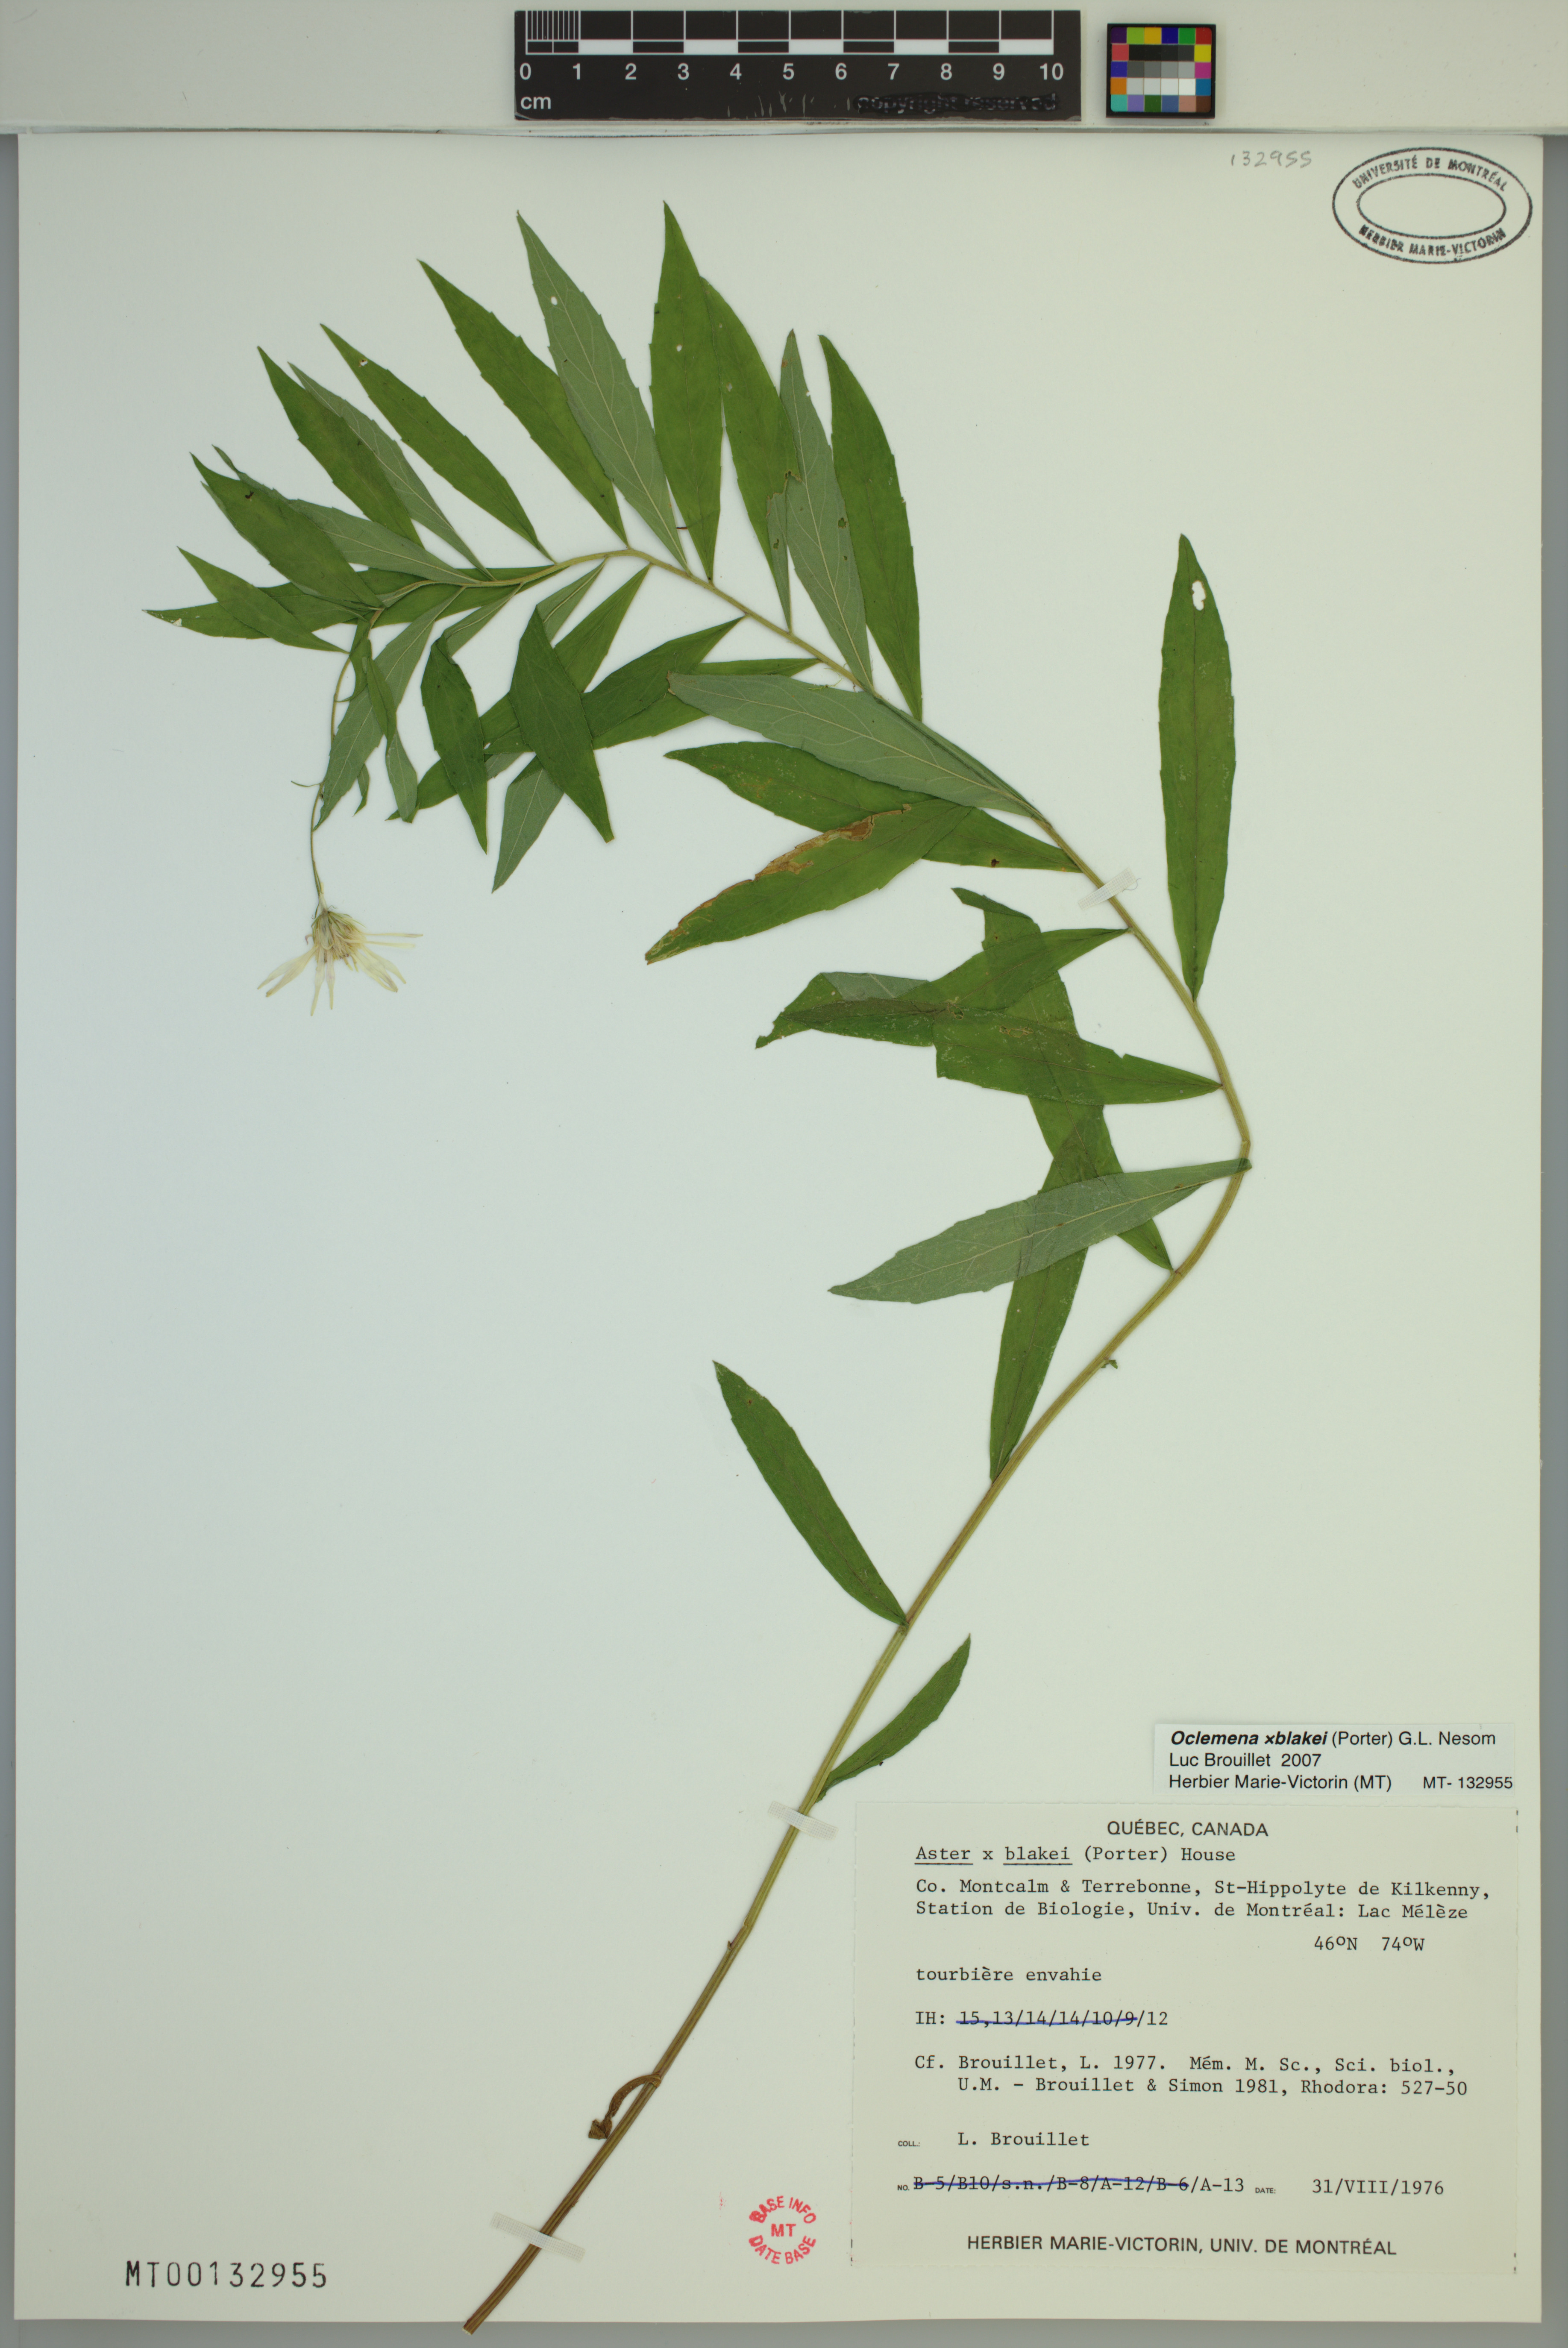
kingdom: Plantae
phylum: Tracheophyta
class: Magnoliopsida
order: Asterales
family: Asteraceae
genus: Oclemena
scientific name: Oclemena blakei
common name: Blake's aster
